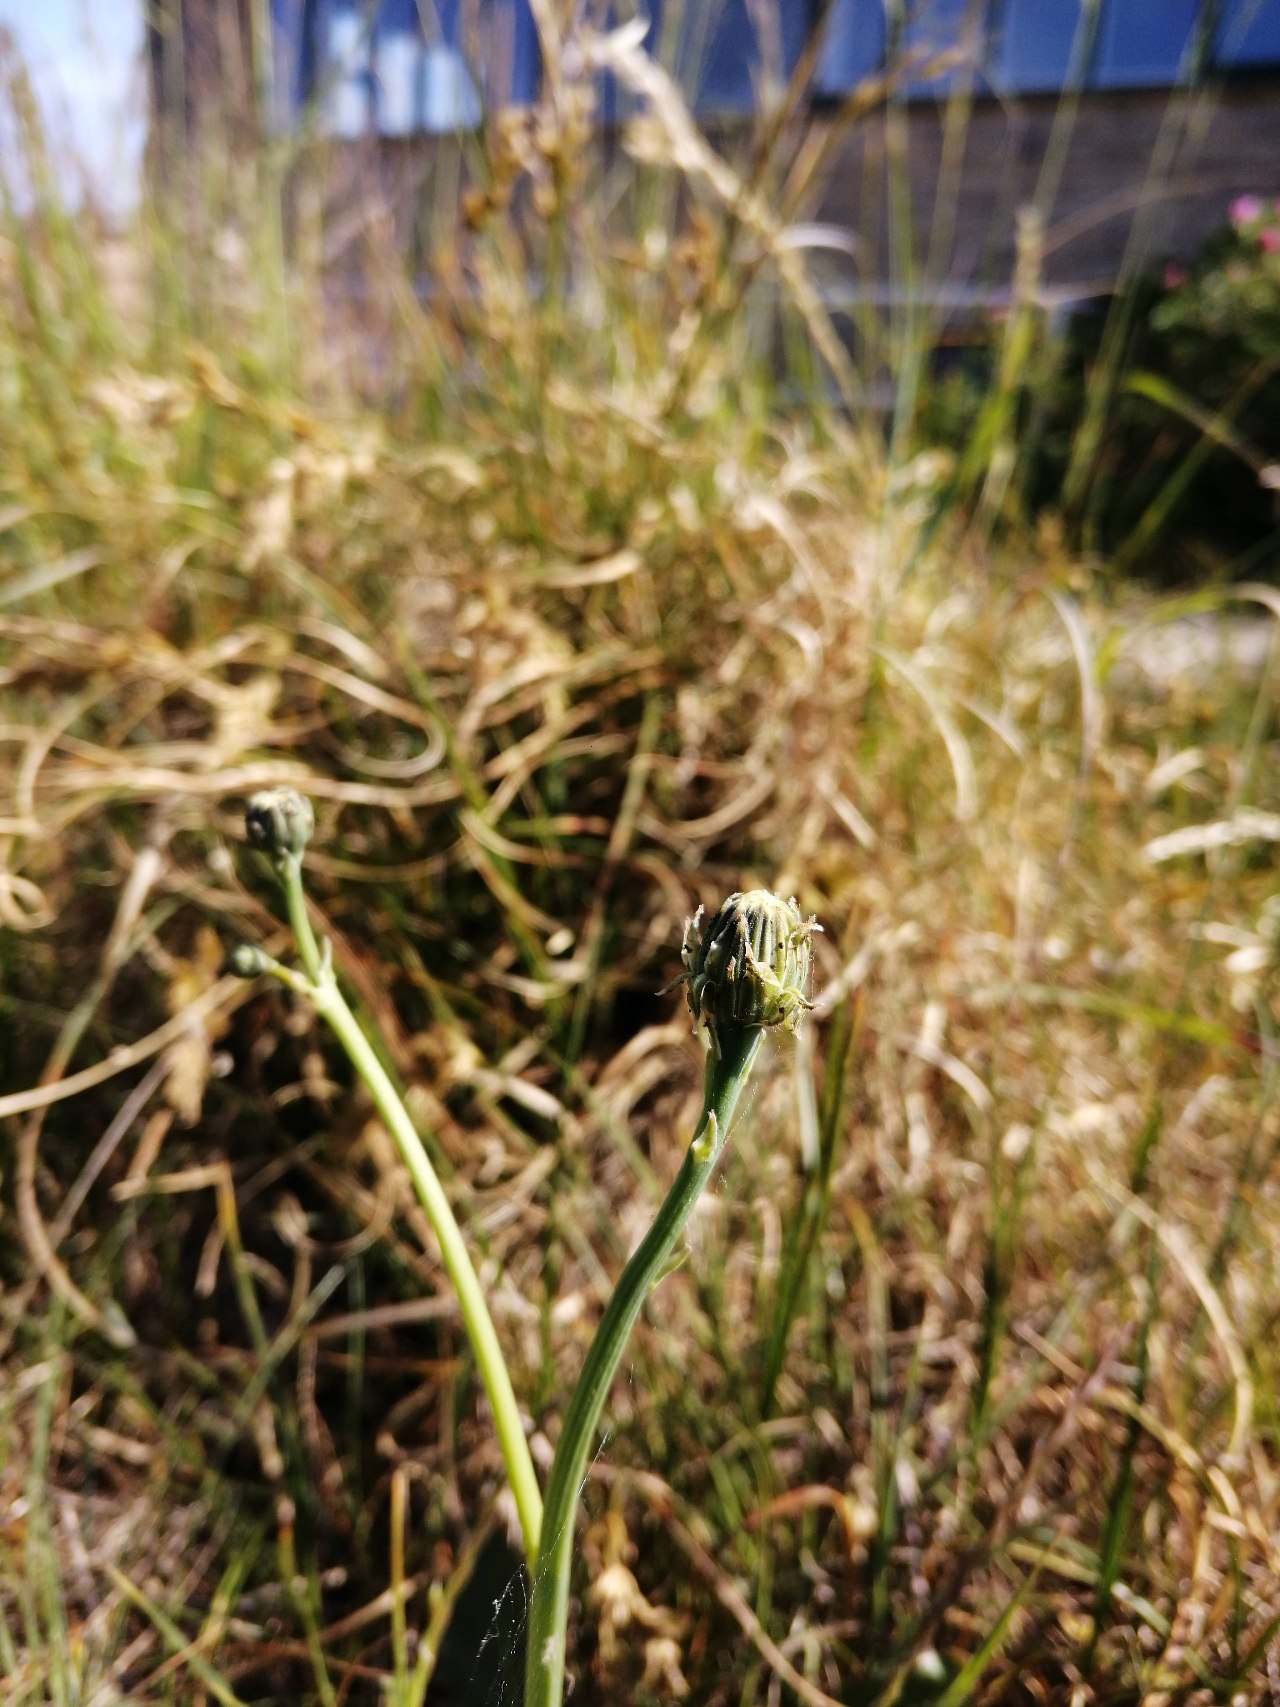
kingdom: Plantae
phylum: Tracheophyta
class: Magnoliopsida
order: Asterales
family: Asteraceae
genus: Hypochaeris
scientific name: Hypochaeris radicata
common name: Almindelig kongepen
